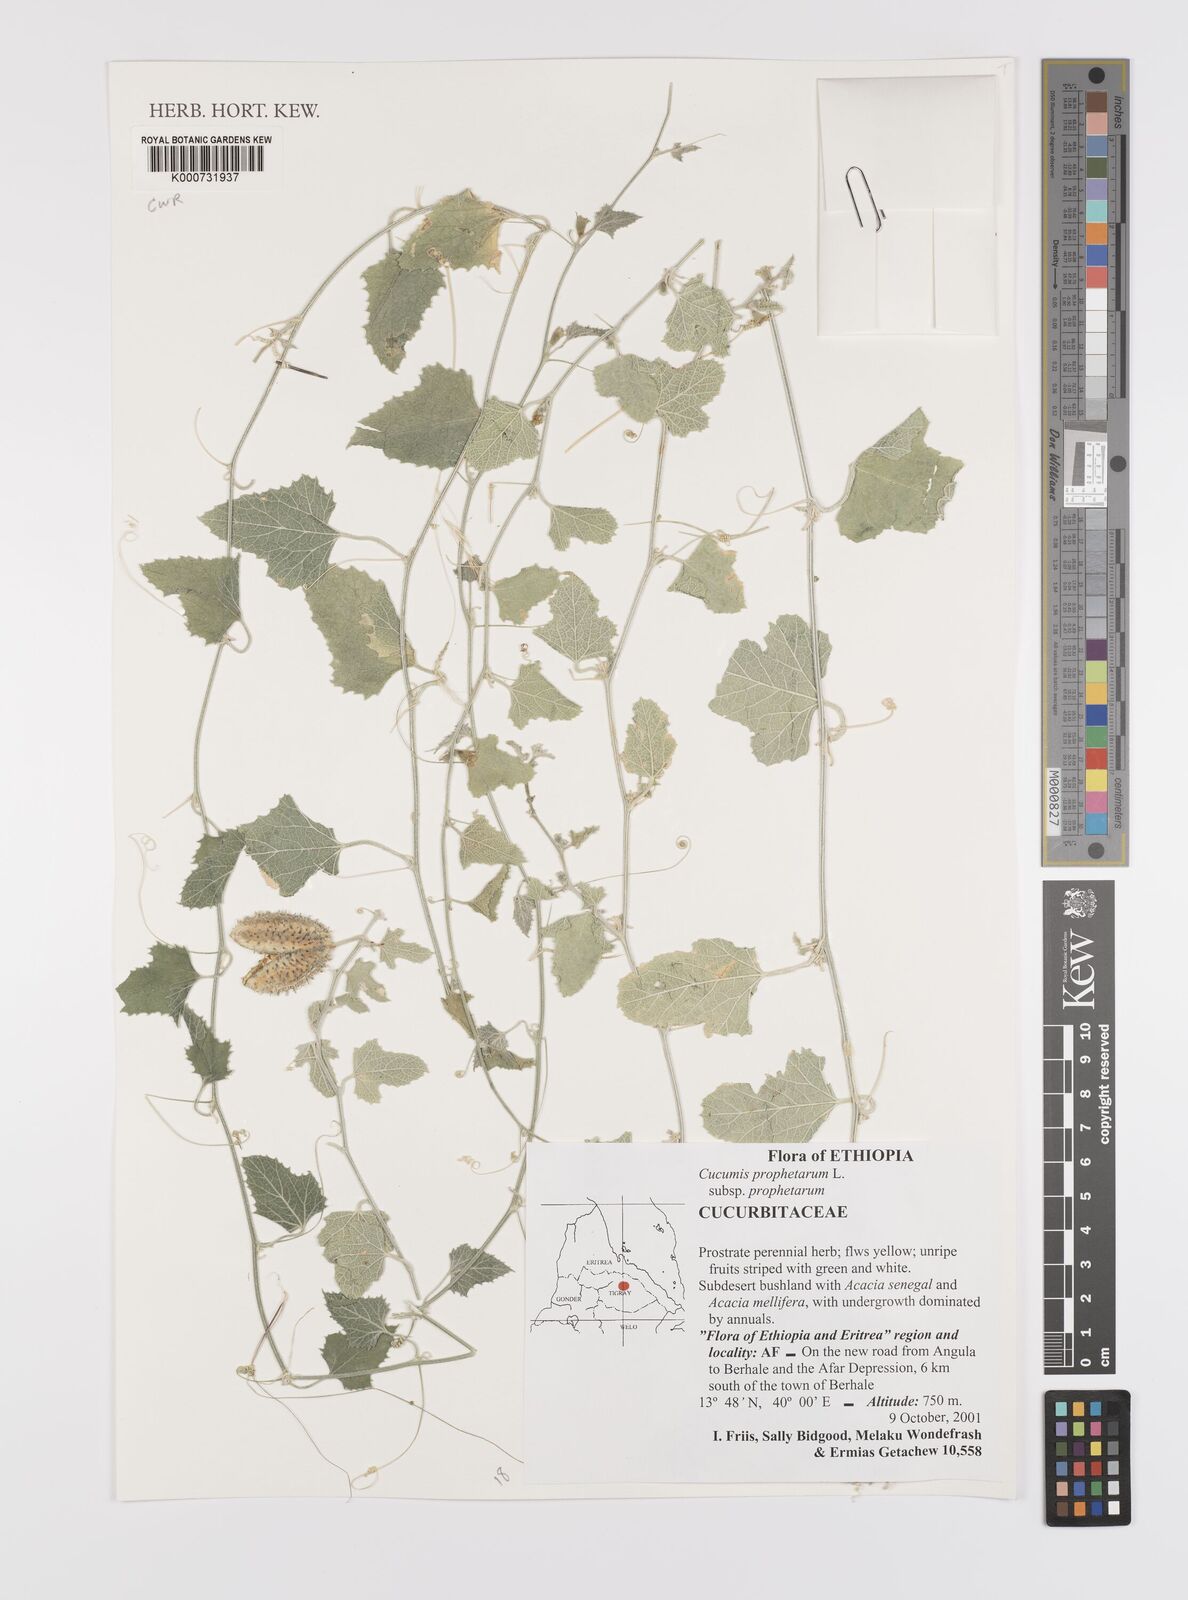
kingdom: Plantae
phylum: Tracheophyta
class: Magnoliopsida
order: Cucurbitales
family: Cucurbitaceae
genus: Cucumis
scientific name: Cucumis prophetarum
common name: Wild cucumber
